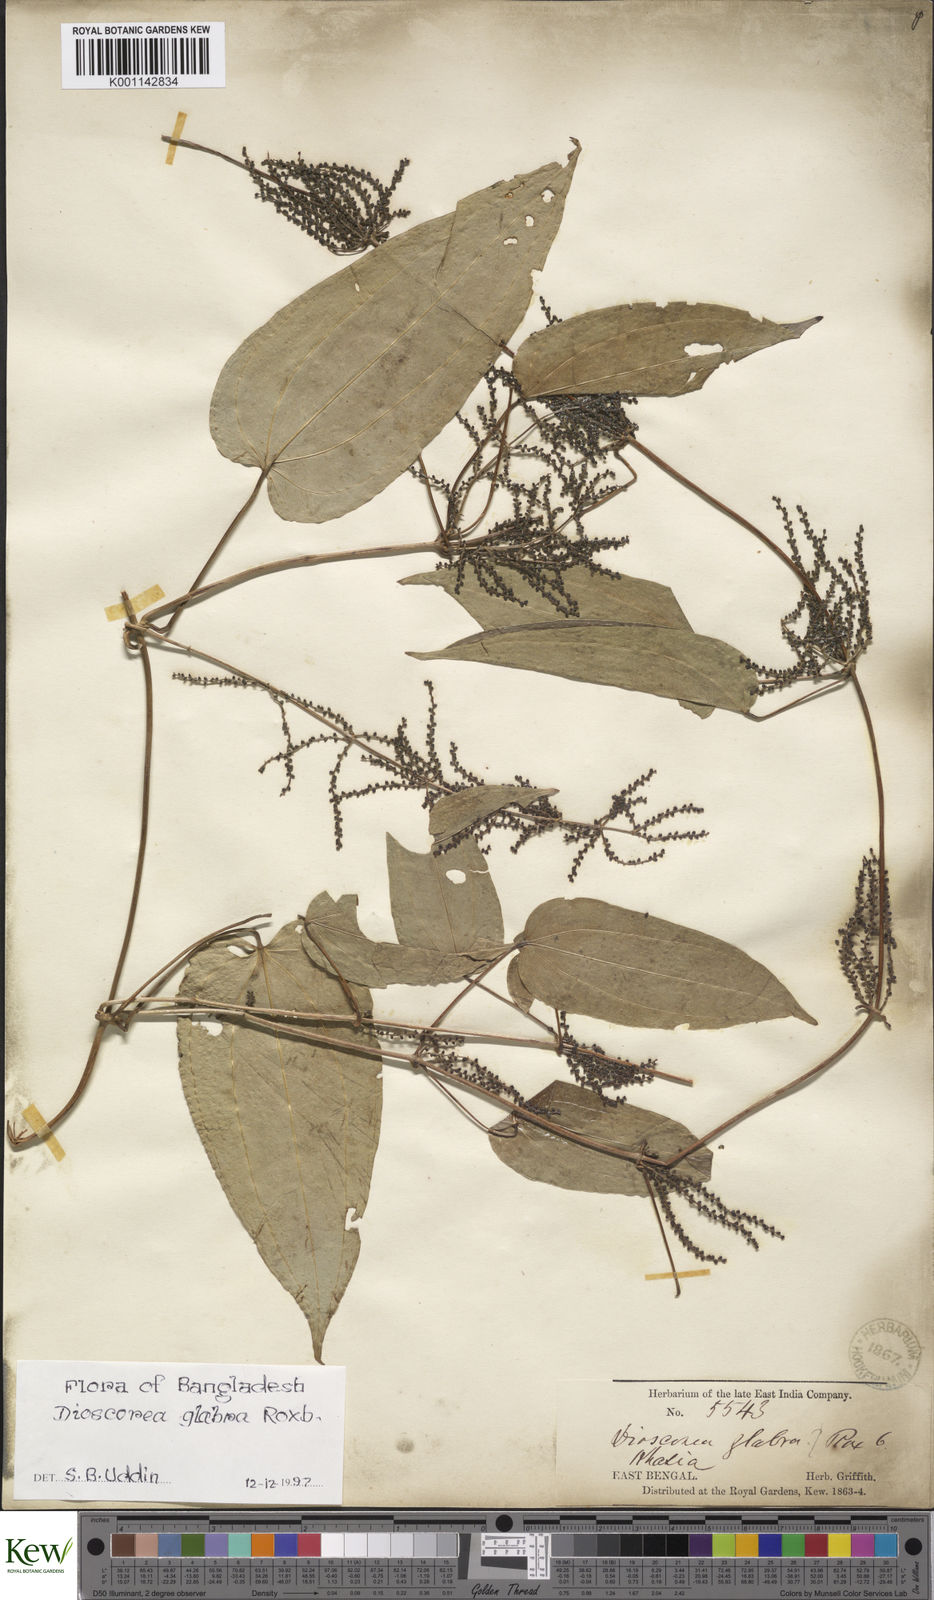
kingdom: Plantae
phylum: Tracheophyta
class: Liliopsida
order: Dioscoreales
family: Dioscoreaceae
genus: Dioscorea
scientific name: Dioscorea glabra
